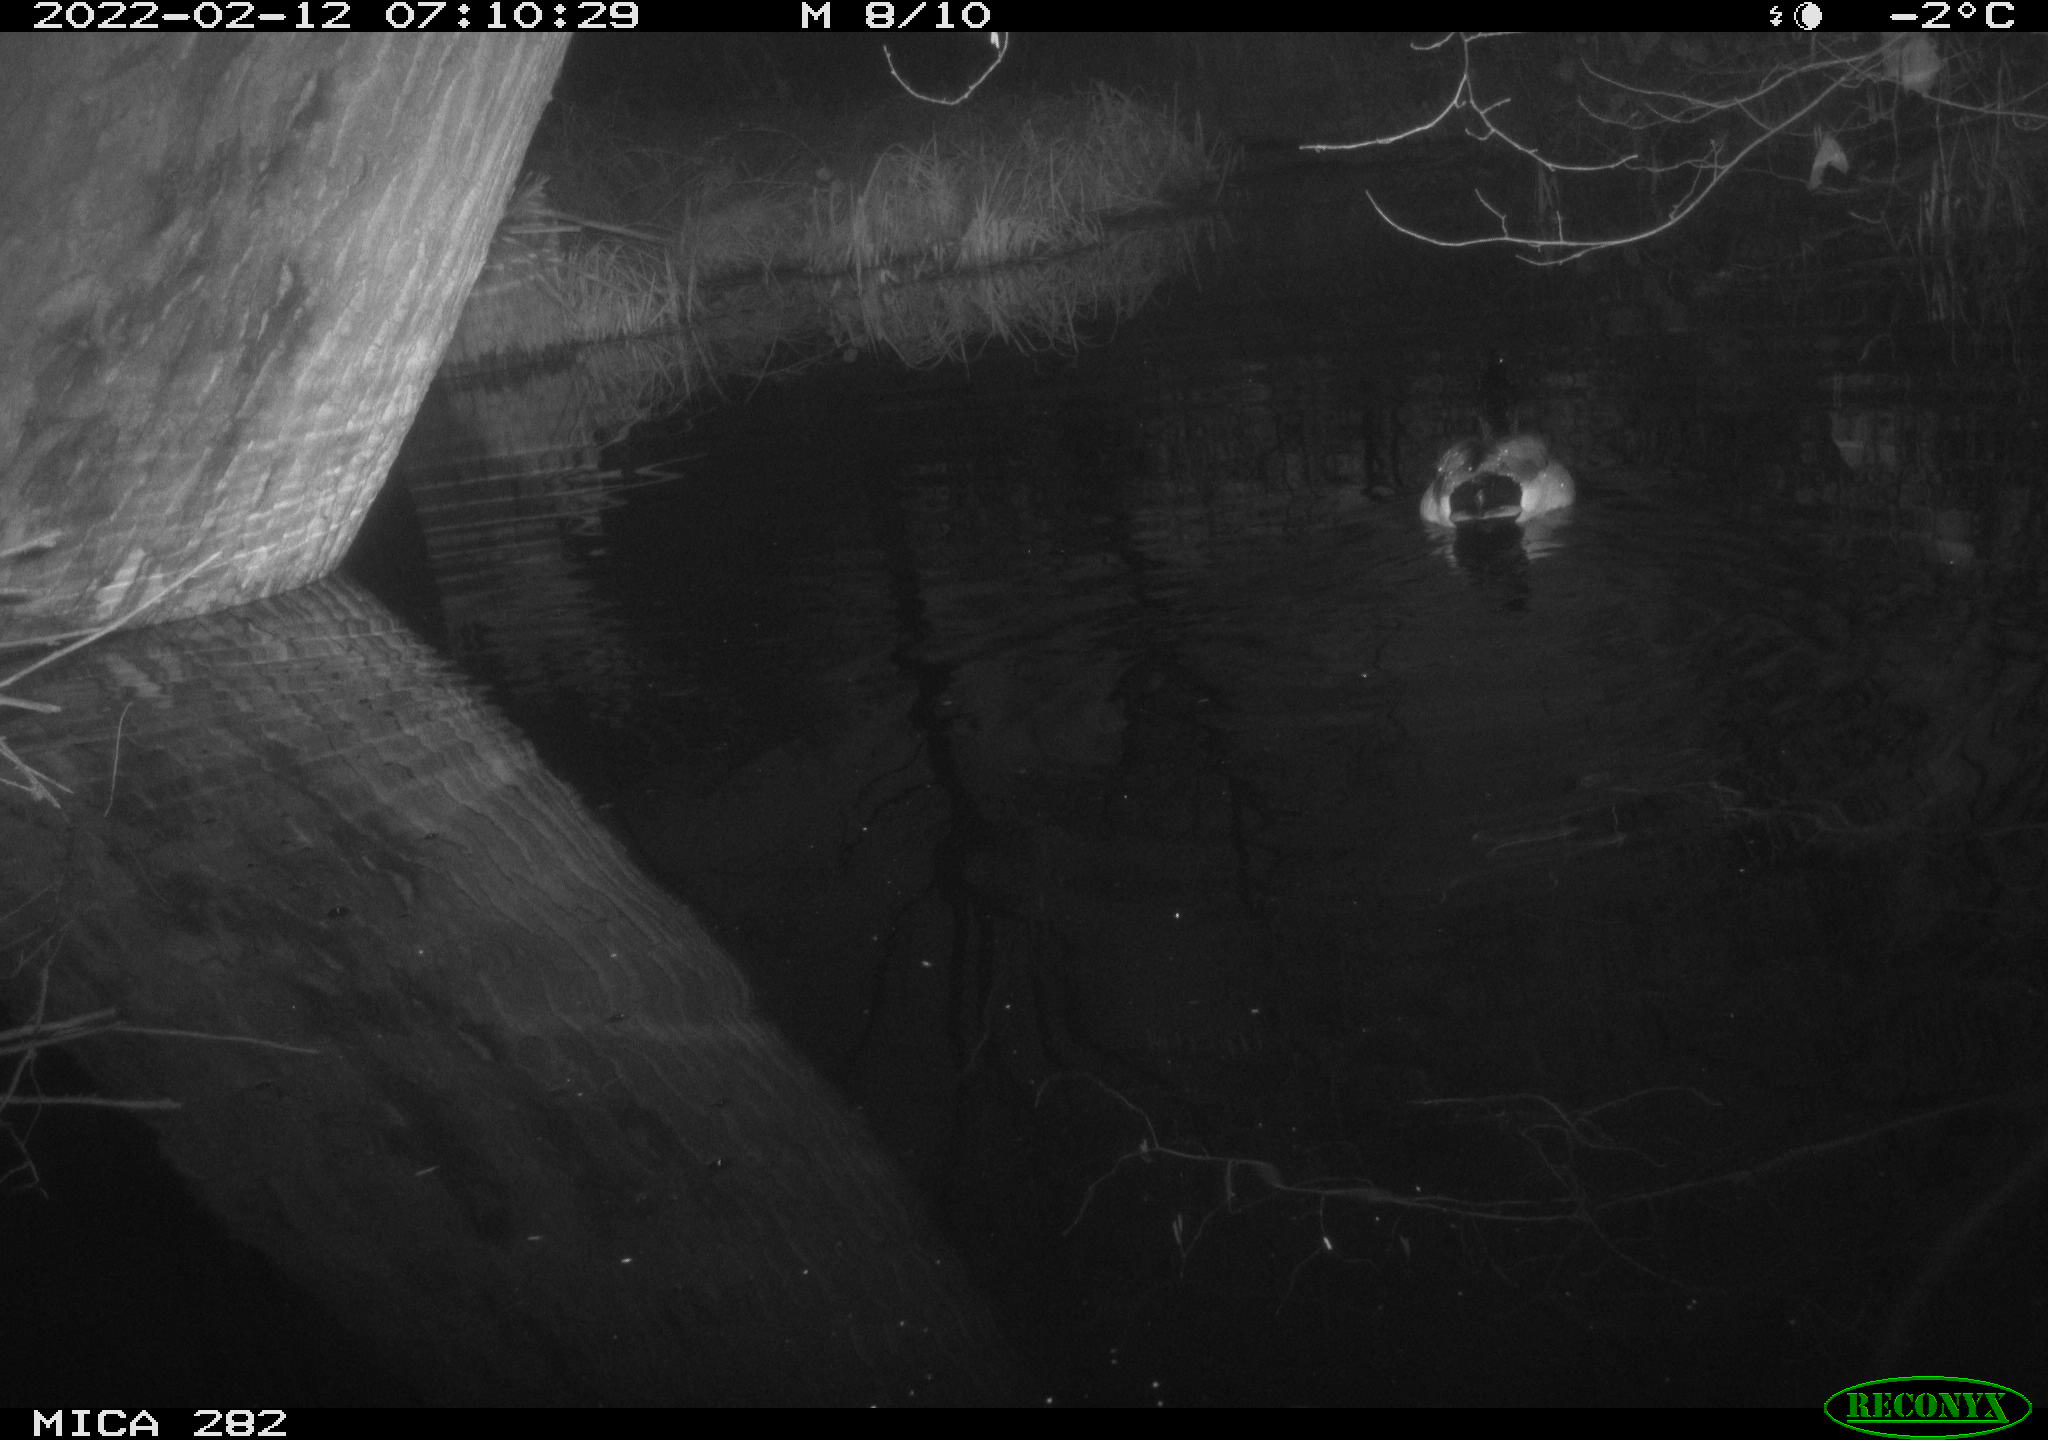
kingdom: Animalia
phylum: Chordata
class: Aves
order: Anseriformes
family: Anatidae
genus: Anas
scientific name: Anas platyrhynchos
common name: Mallard
